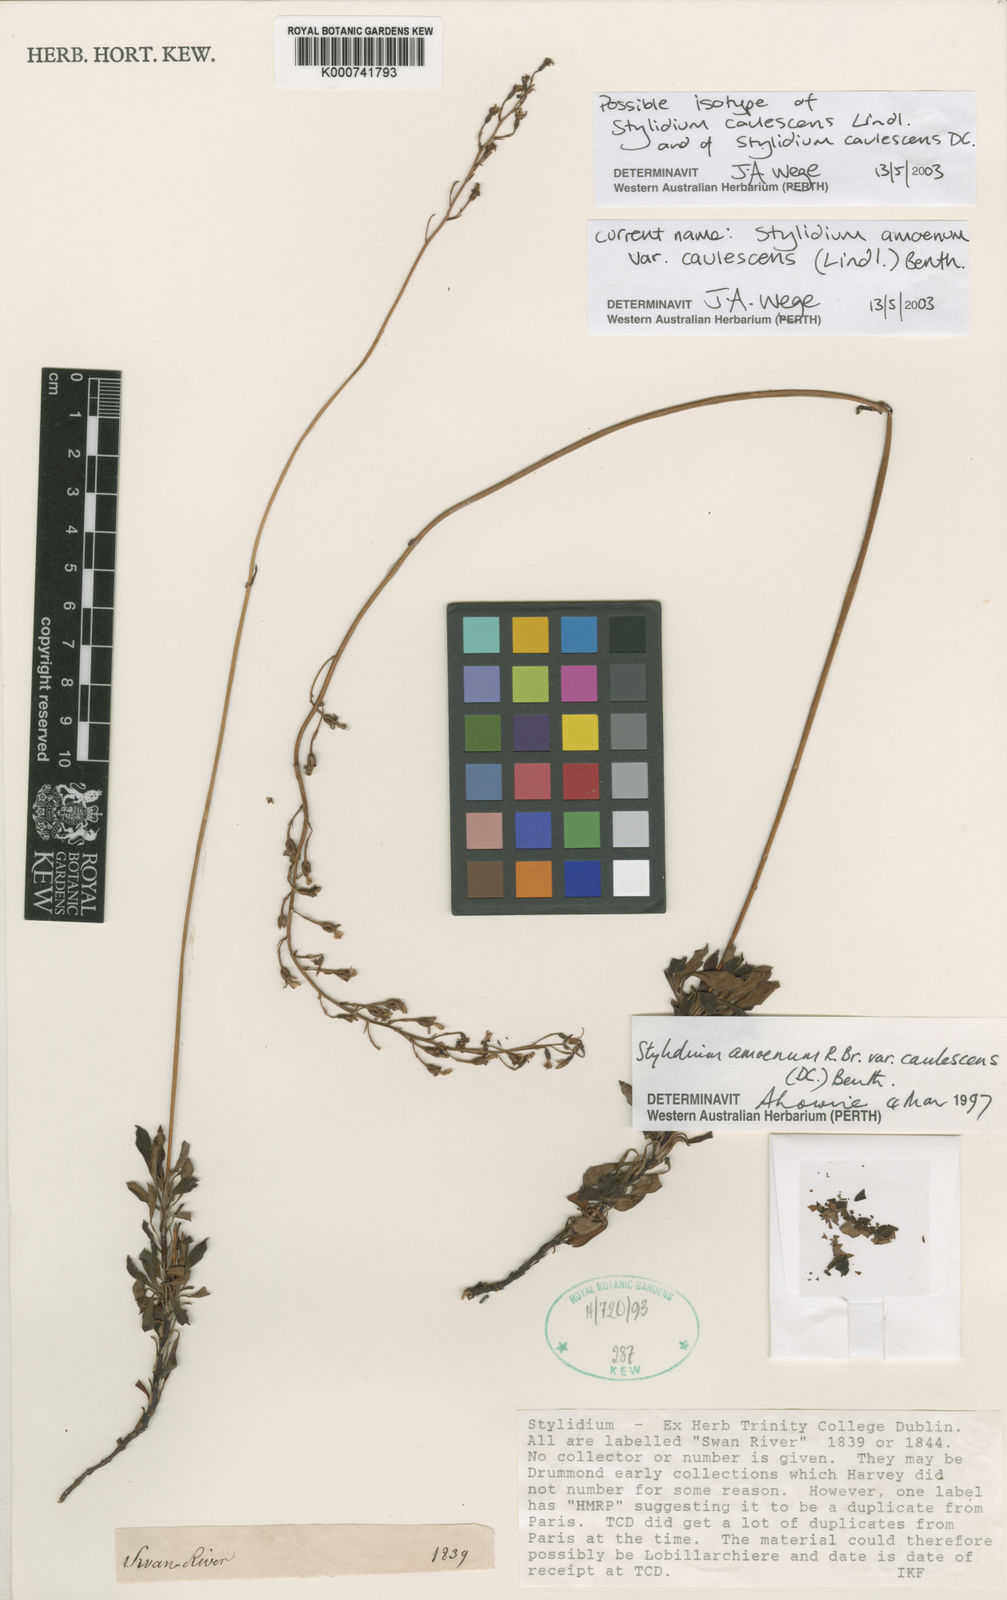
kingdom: Plantae
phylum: Tracheophyta
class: Magnoliopsida
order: Asterales
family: Stylidiaceae
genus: Stylidium
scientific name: Stylidium amoenum
